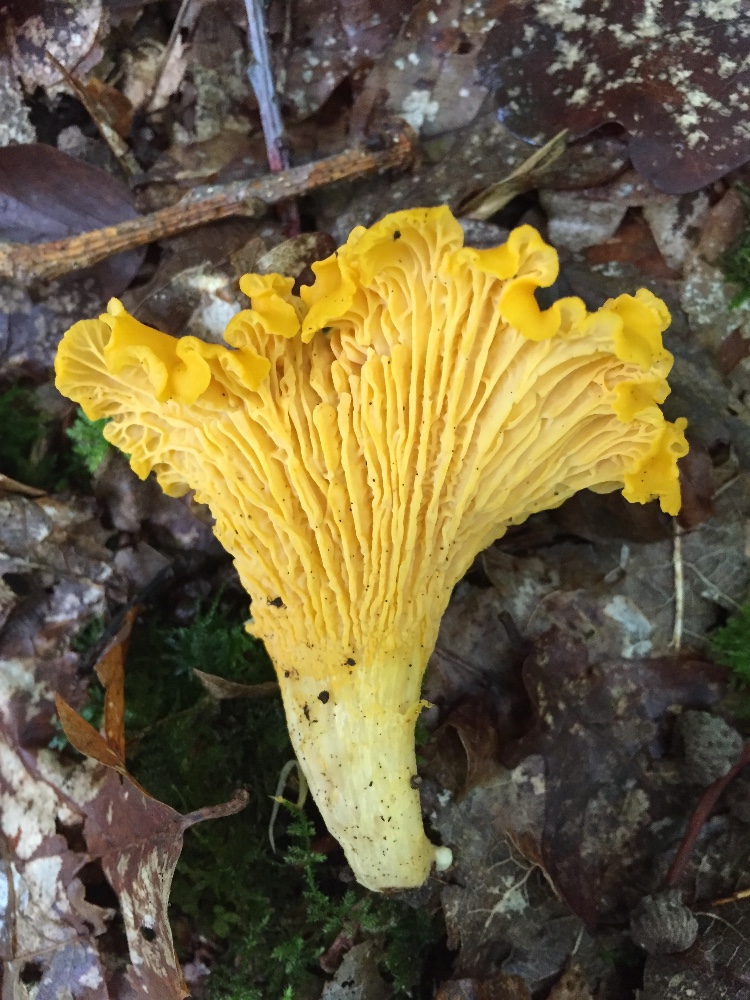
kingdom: Fungi
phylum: Basidiomycota
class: Agaricomycetes
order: Cantharellales
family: Hydnaceae
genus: Cantharellus
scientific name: Cantharellus cibarius
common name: almindelig kantarel
